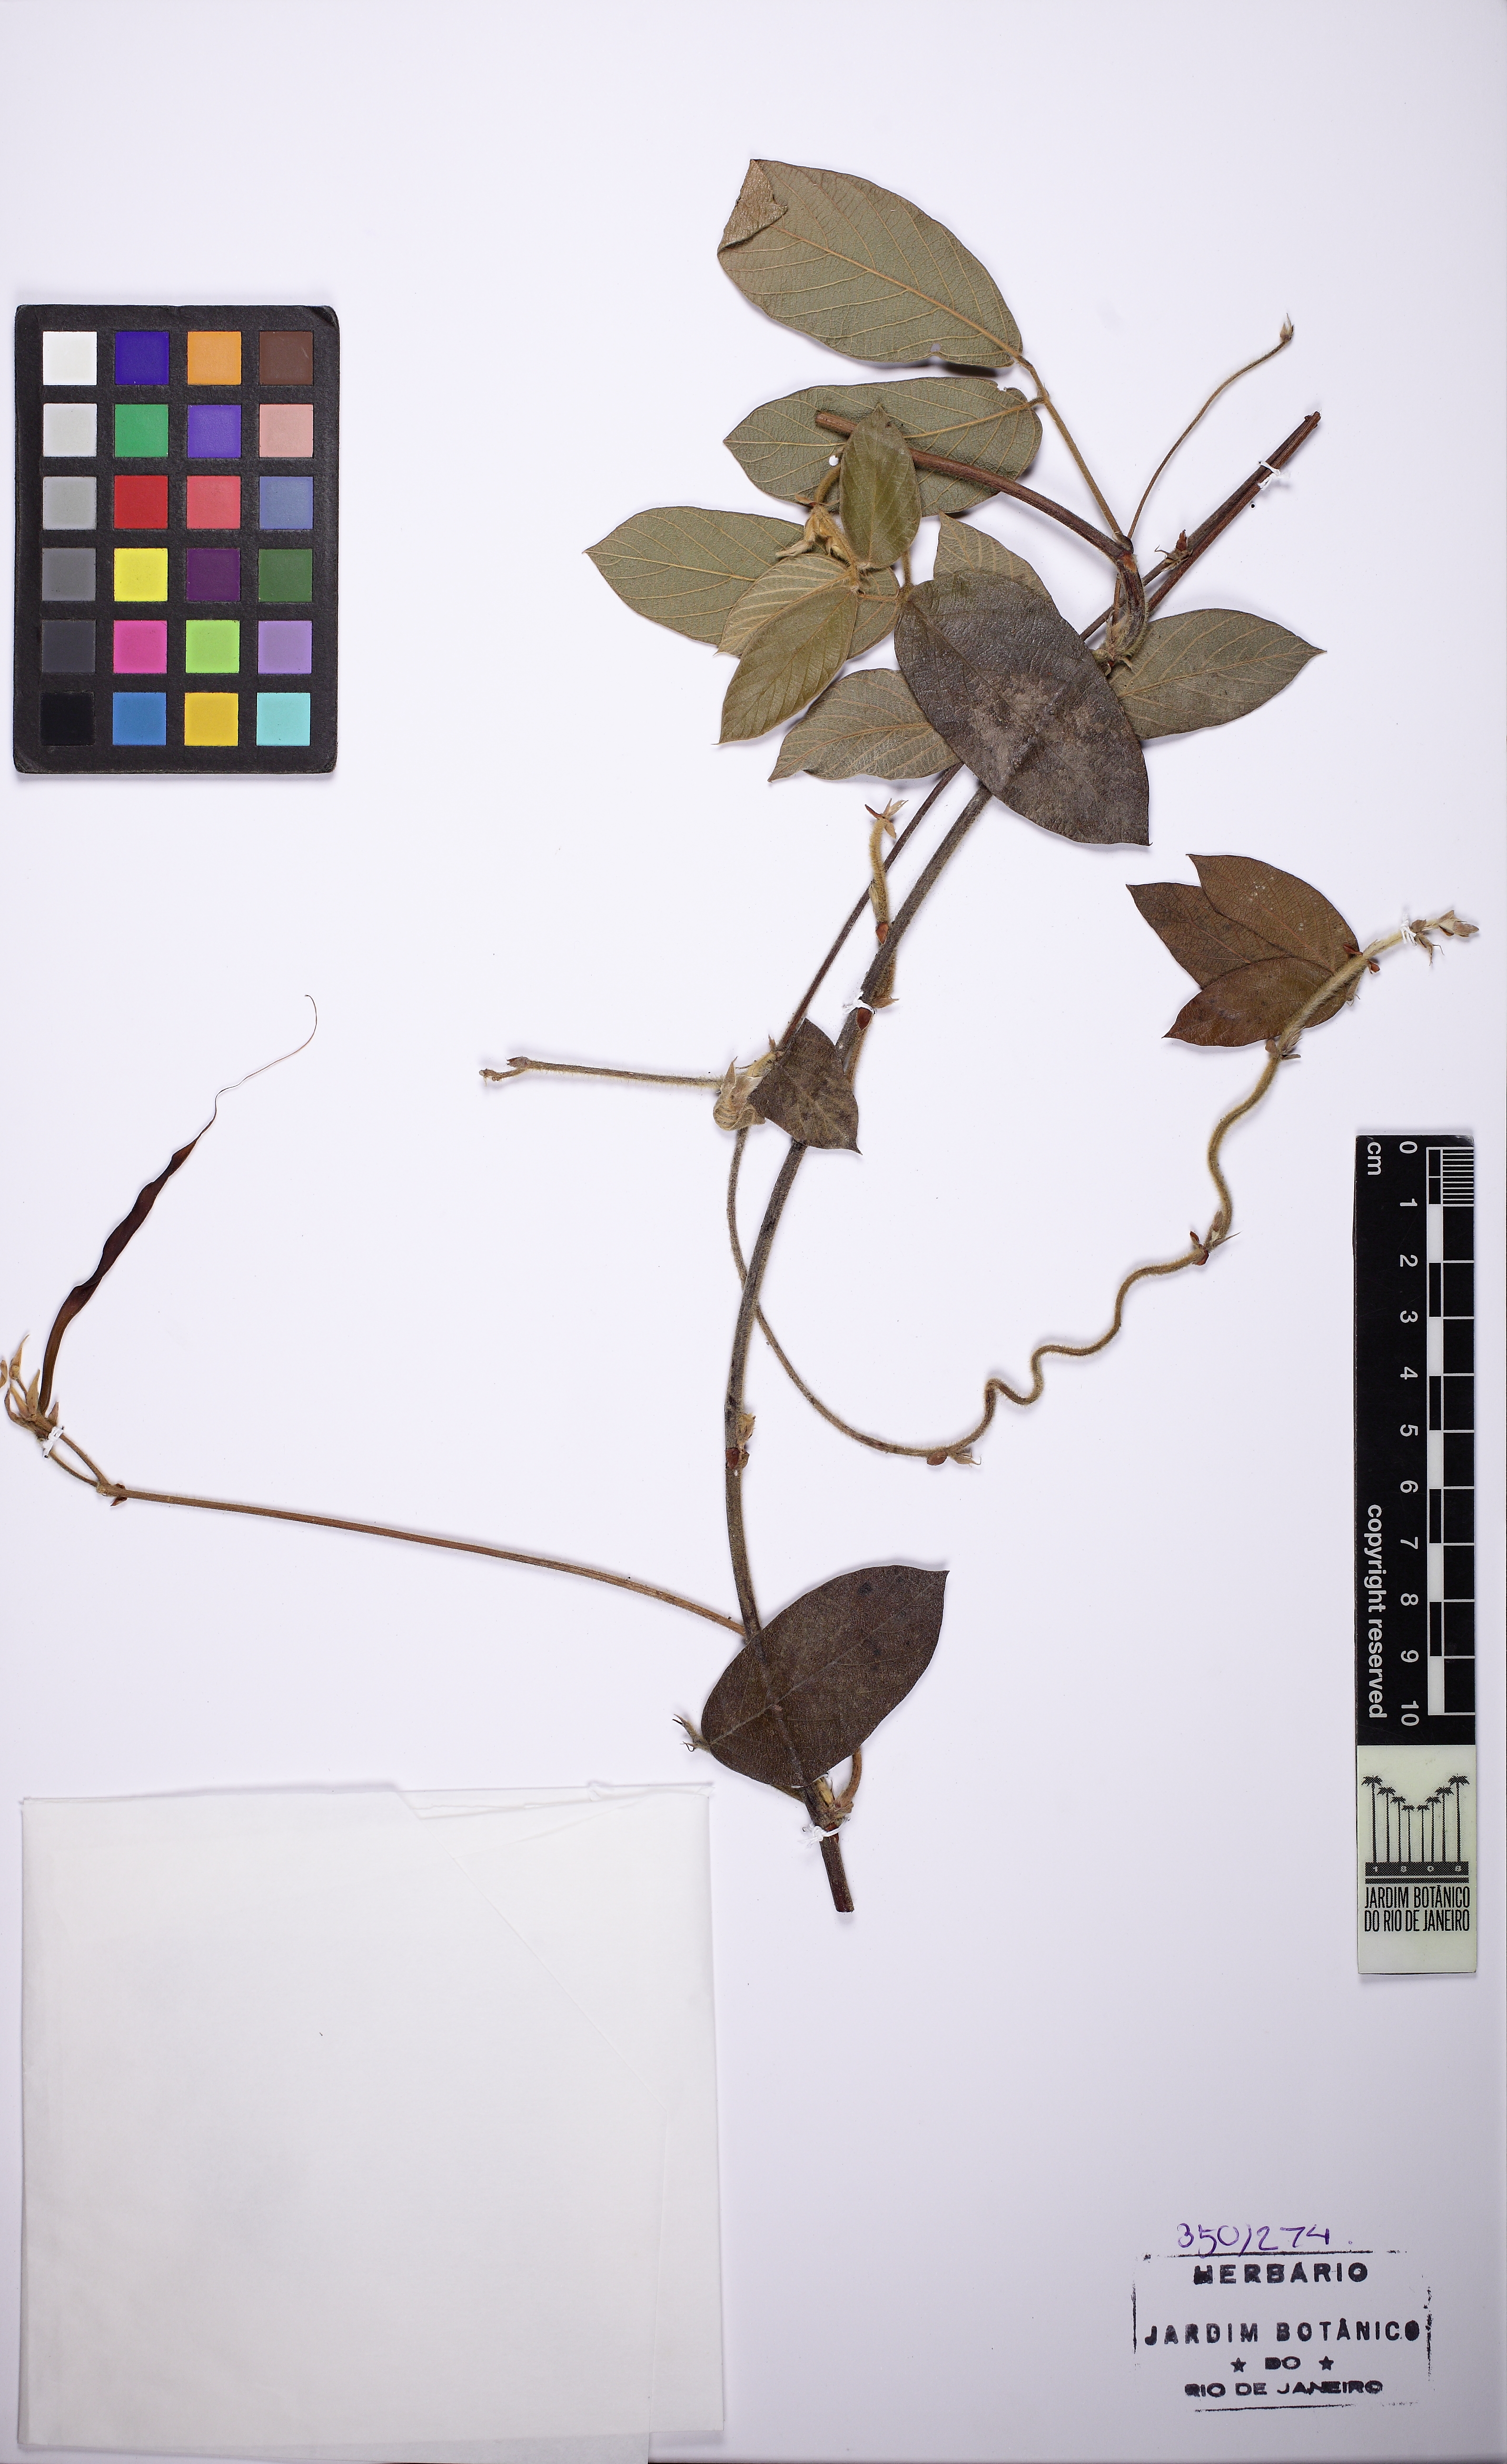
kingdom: Plantae
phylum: Tracheophyta
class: Magnoliopsida
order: Fabales
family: Fabaceae
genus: Periandra
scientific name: Periandra
